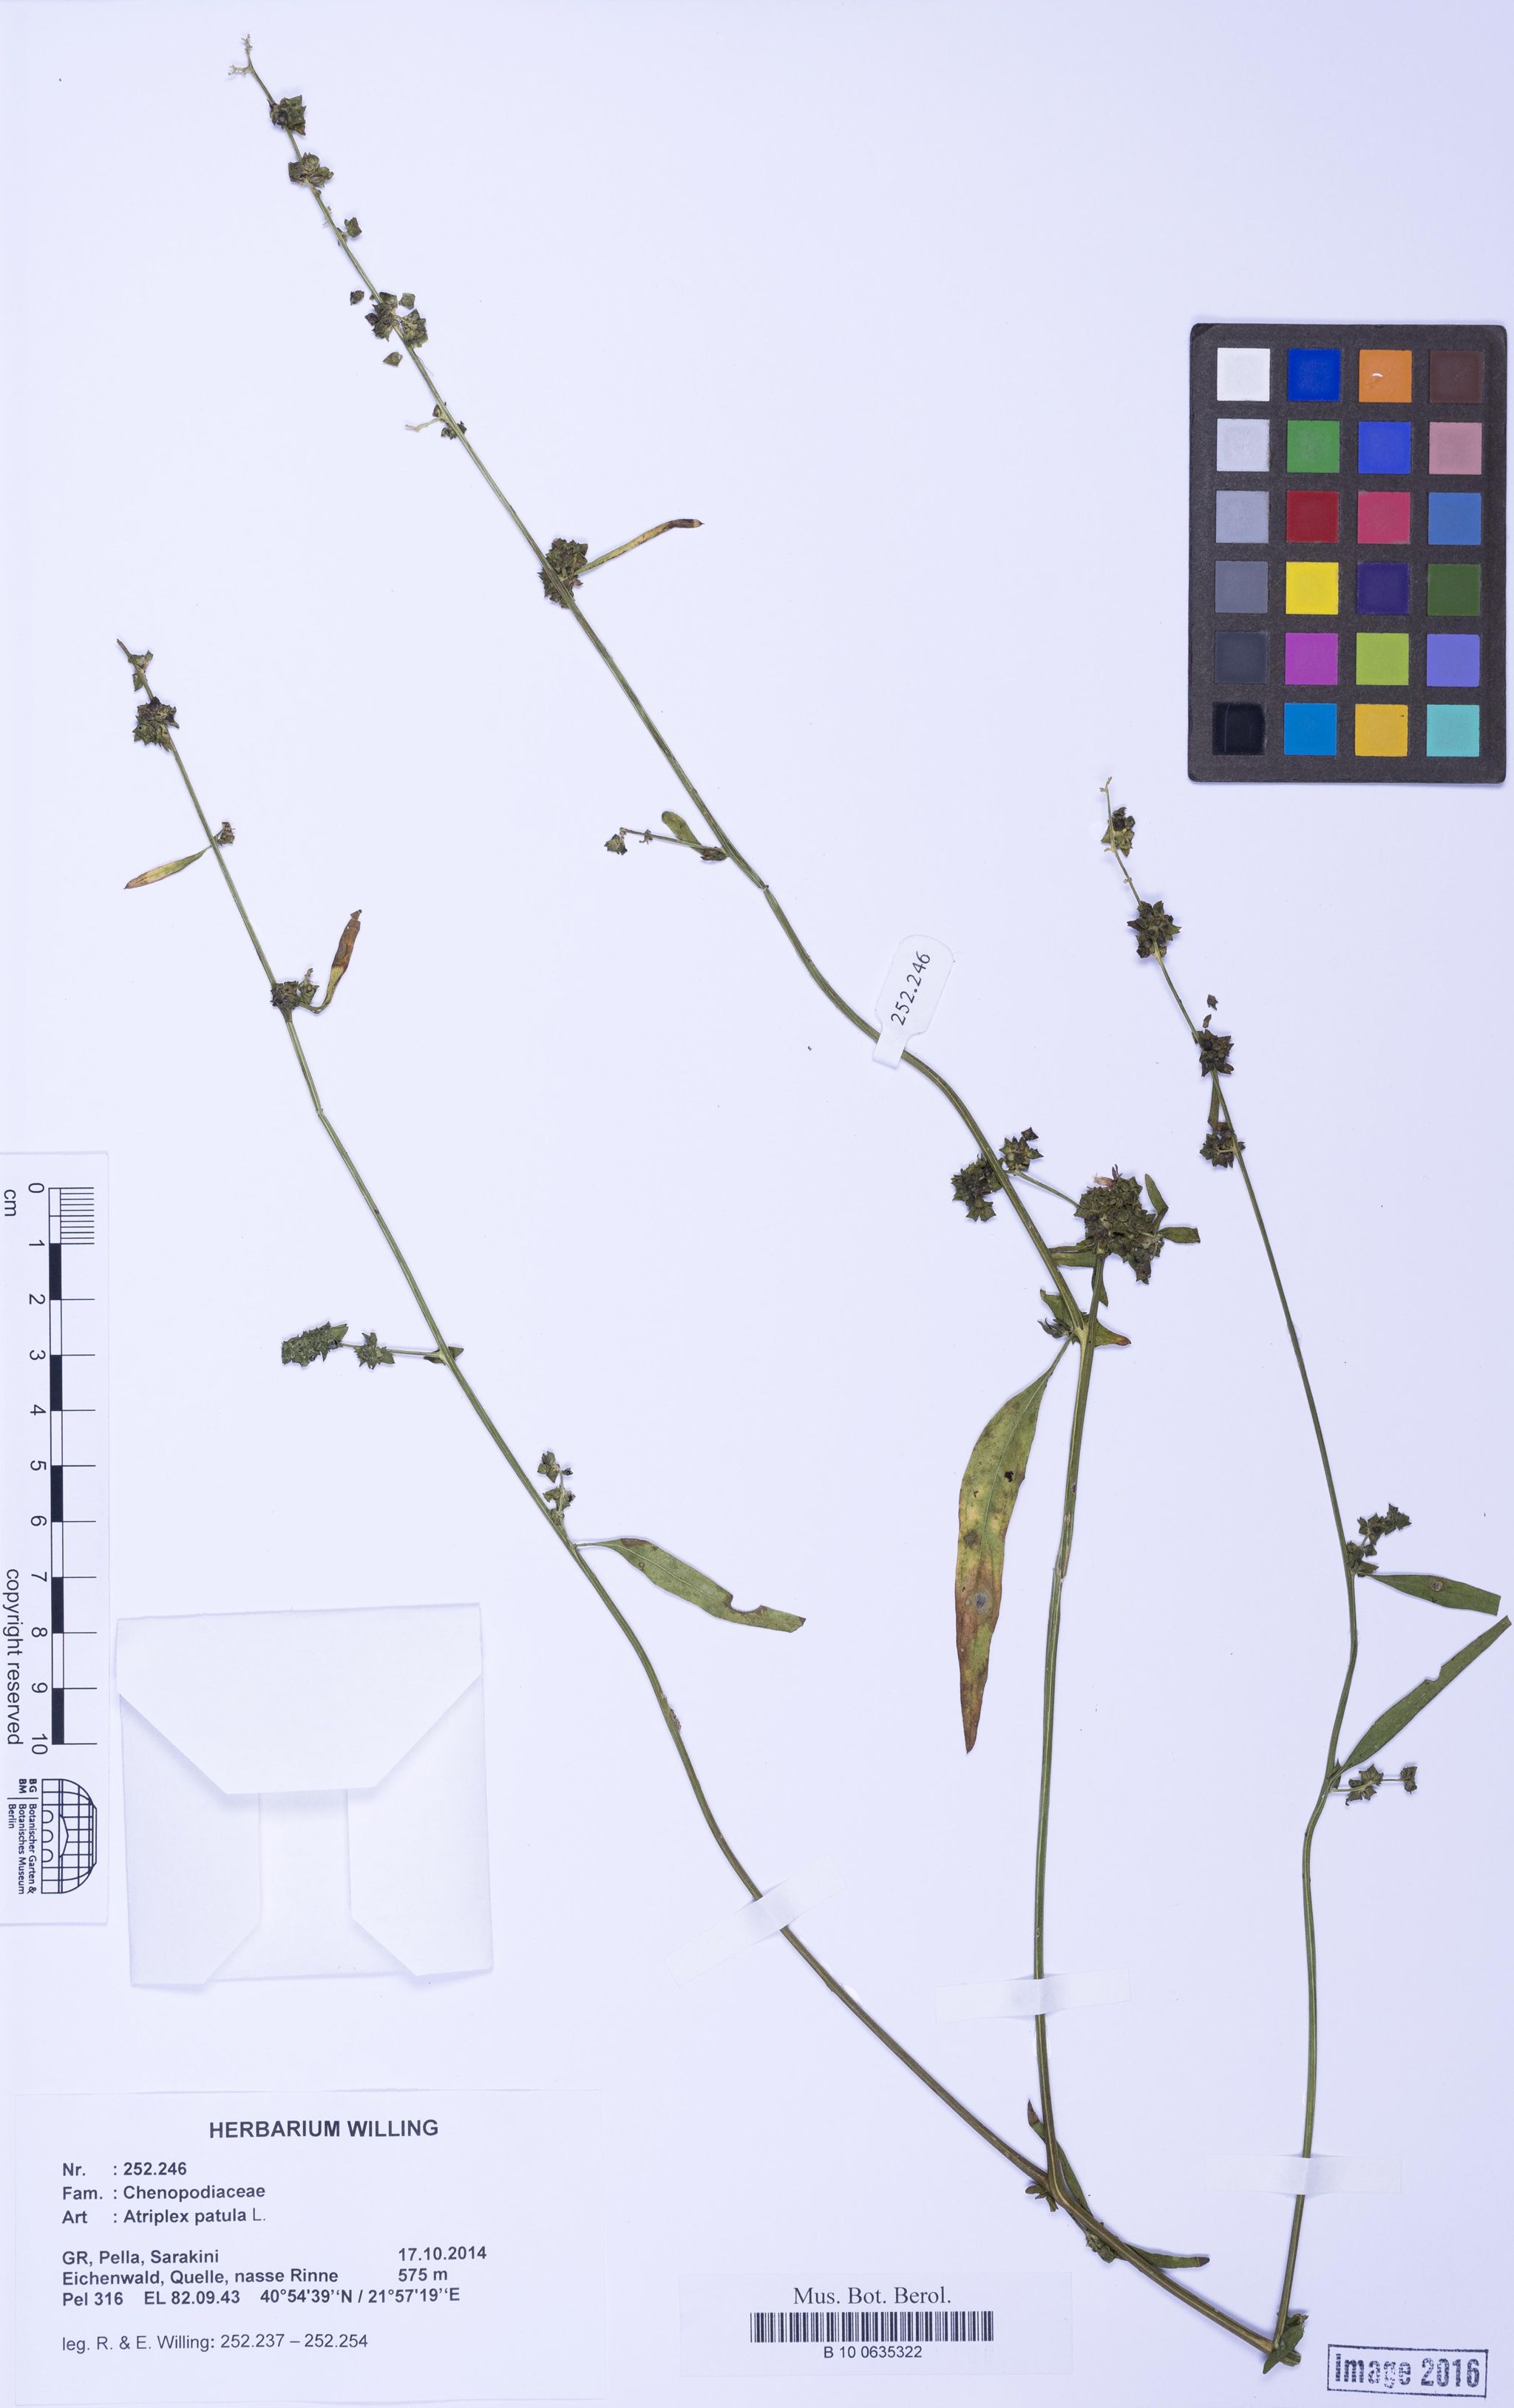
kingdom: Plantae
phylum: Tracheophyta
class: Magnoliopsida
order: Caryophyllales
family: Amaranthaceae
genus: Atriplex
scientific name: Atriplex patula
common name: Common orache
